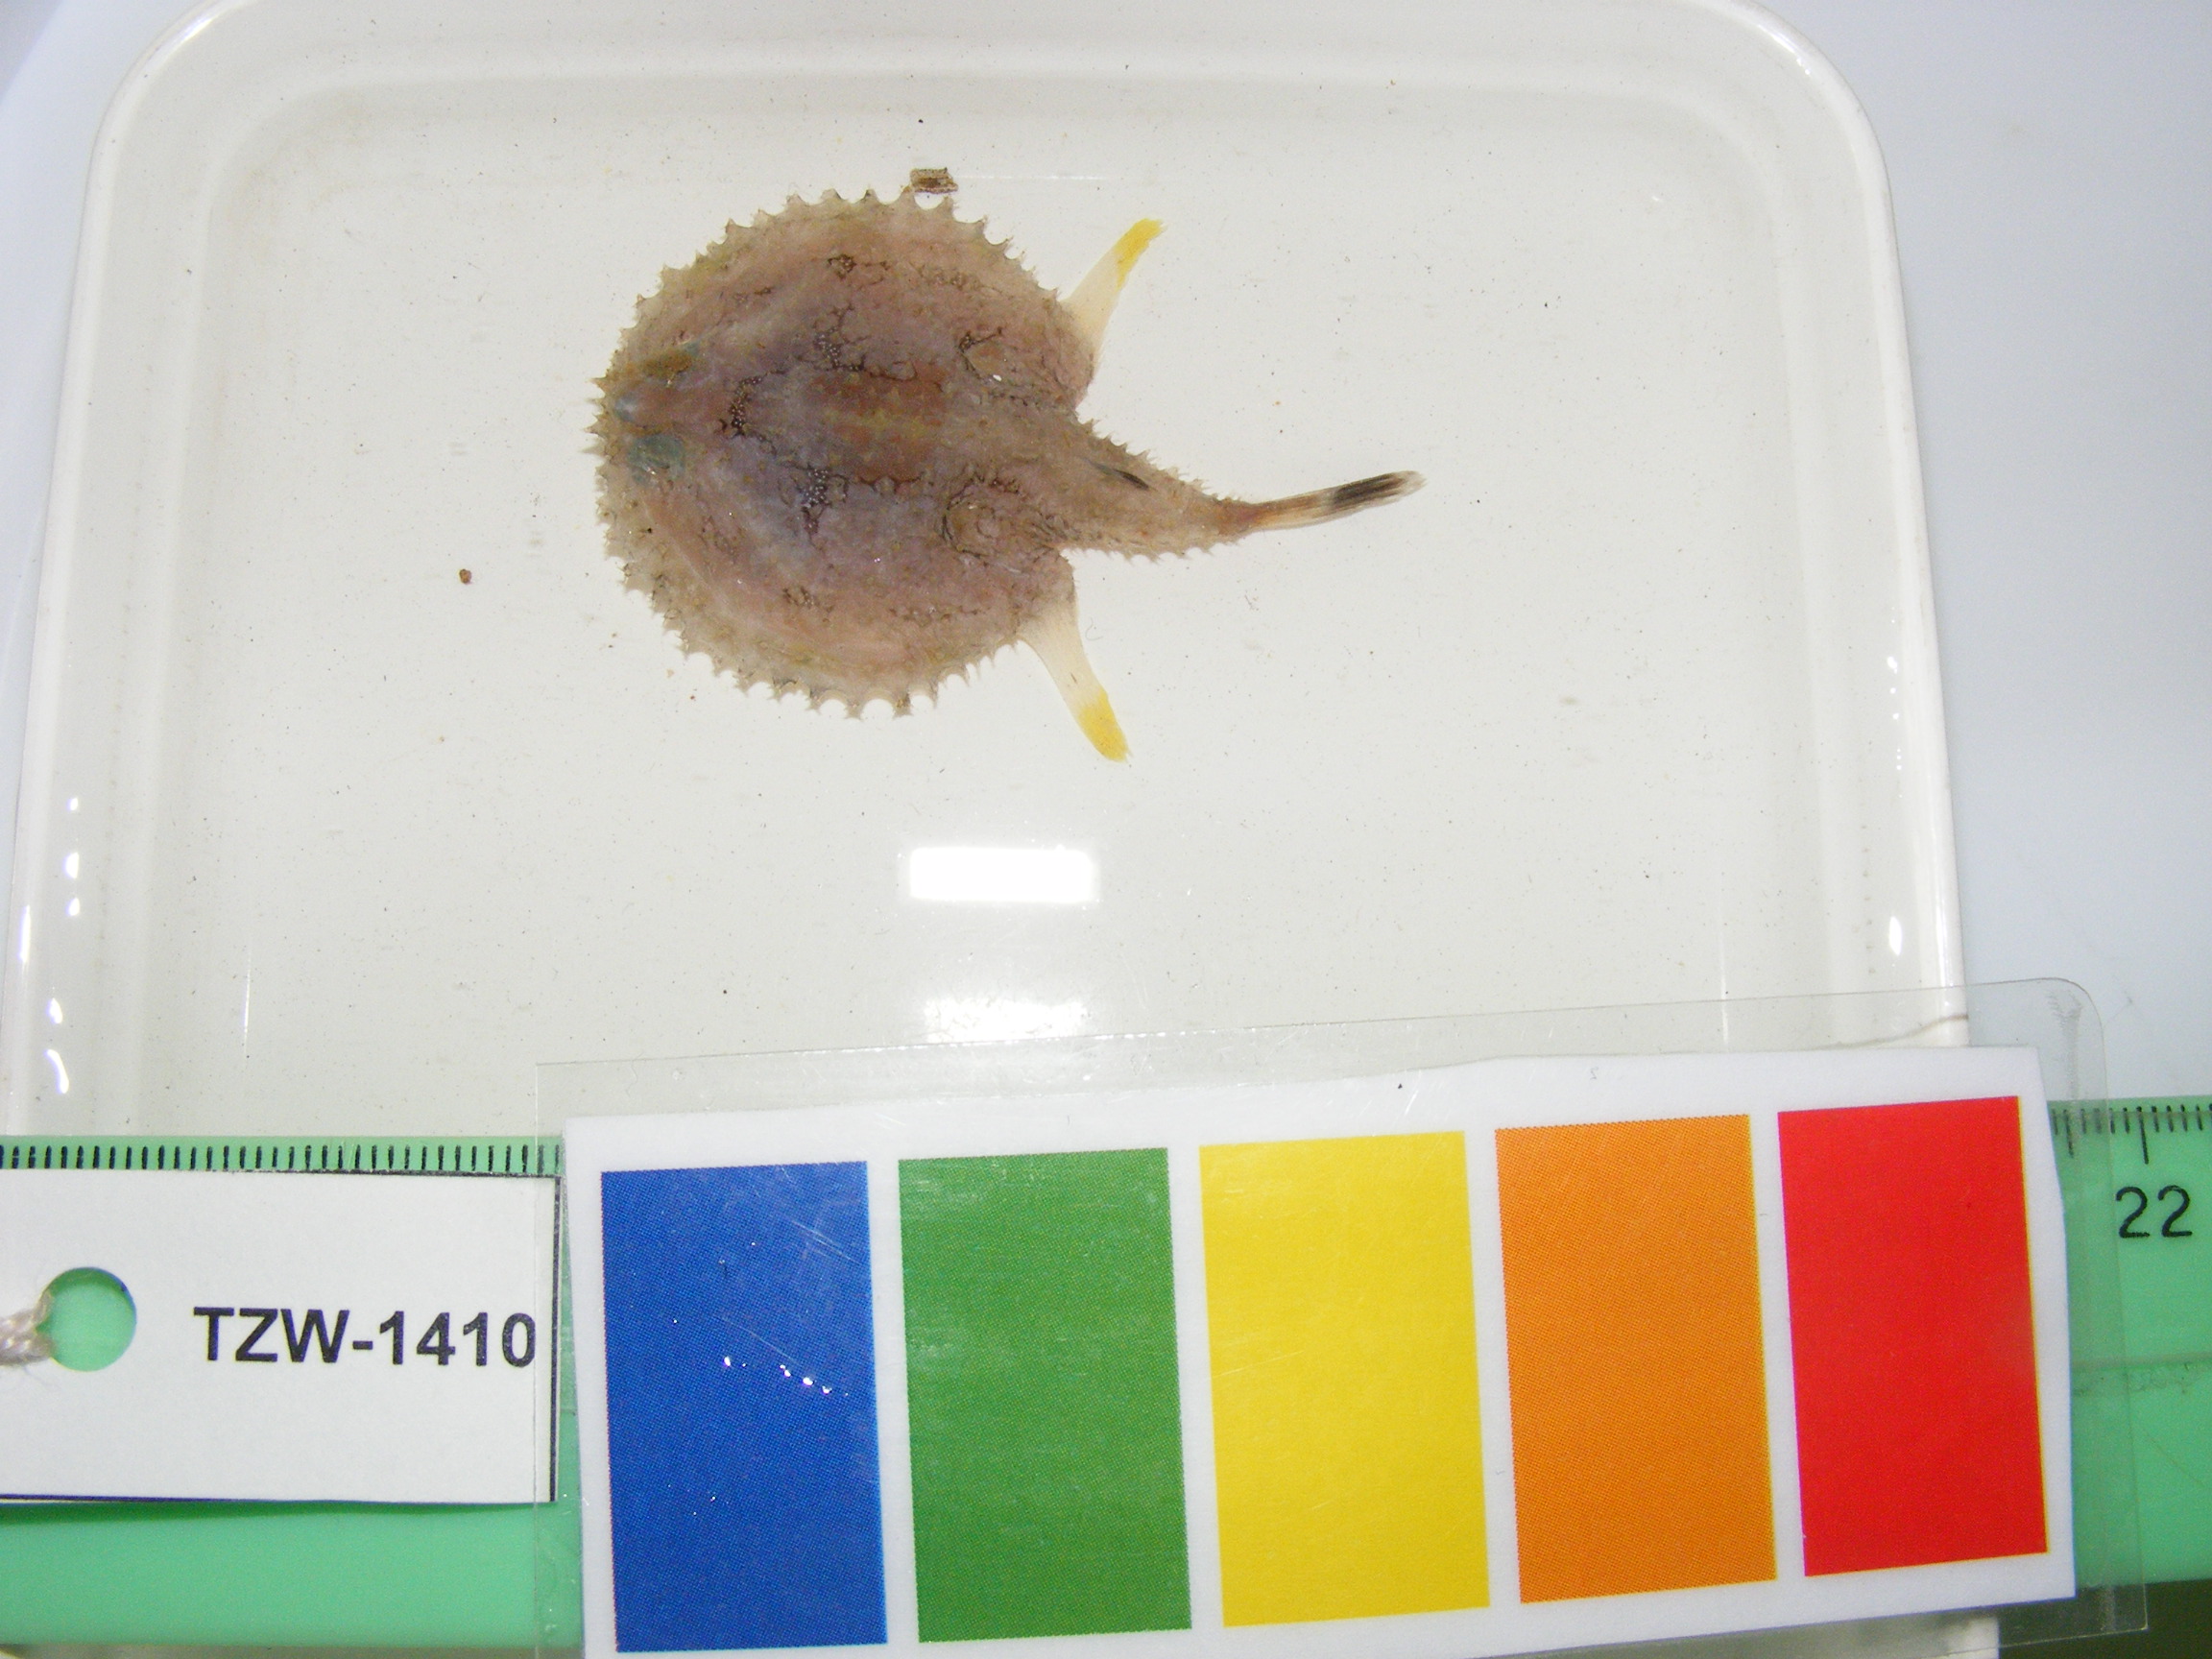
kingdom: Animalia
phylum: Chordata
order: Lophiiformes
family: Ogcocephalidae
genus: Halieutaea
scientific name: Halieutaea indica
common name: Indian handfish
